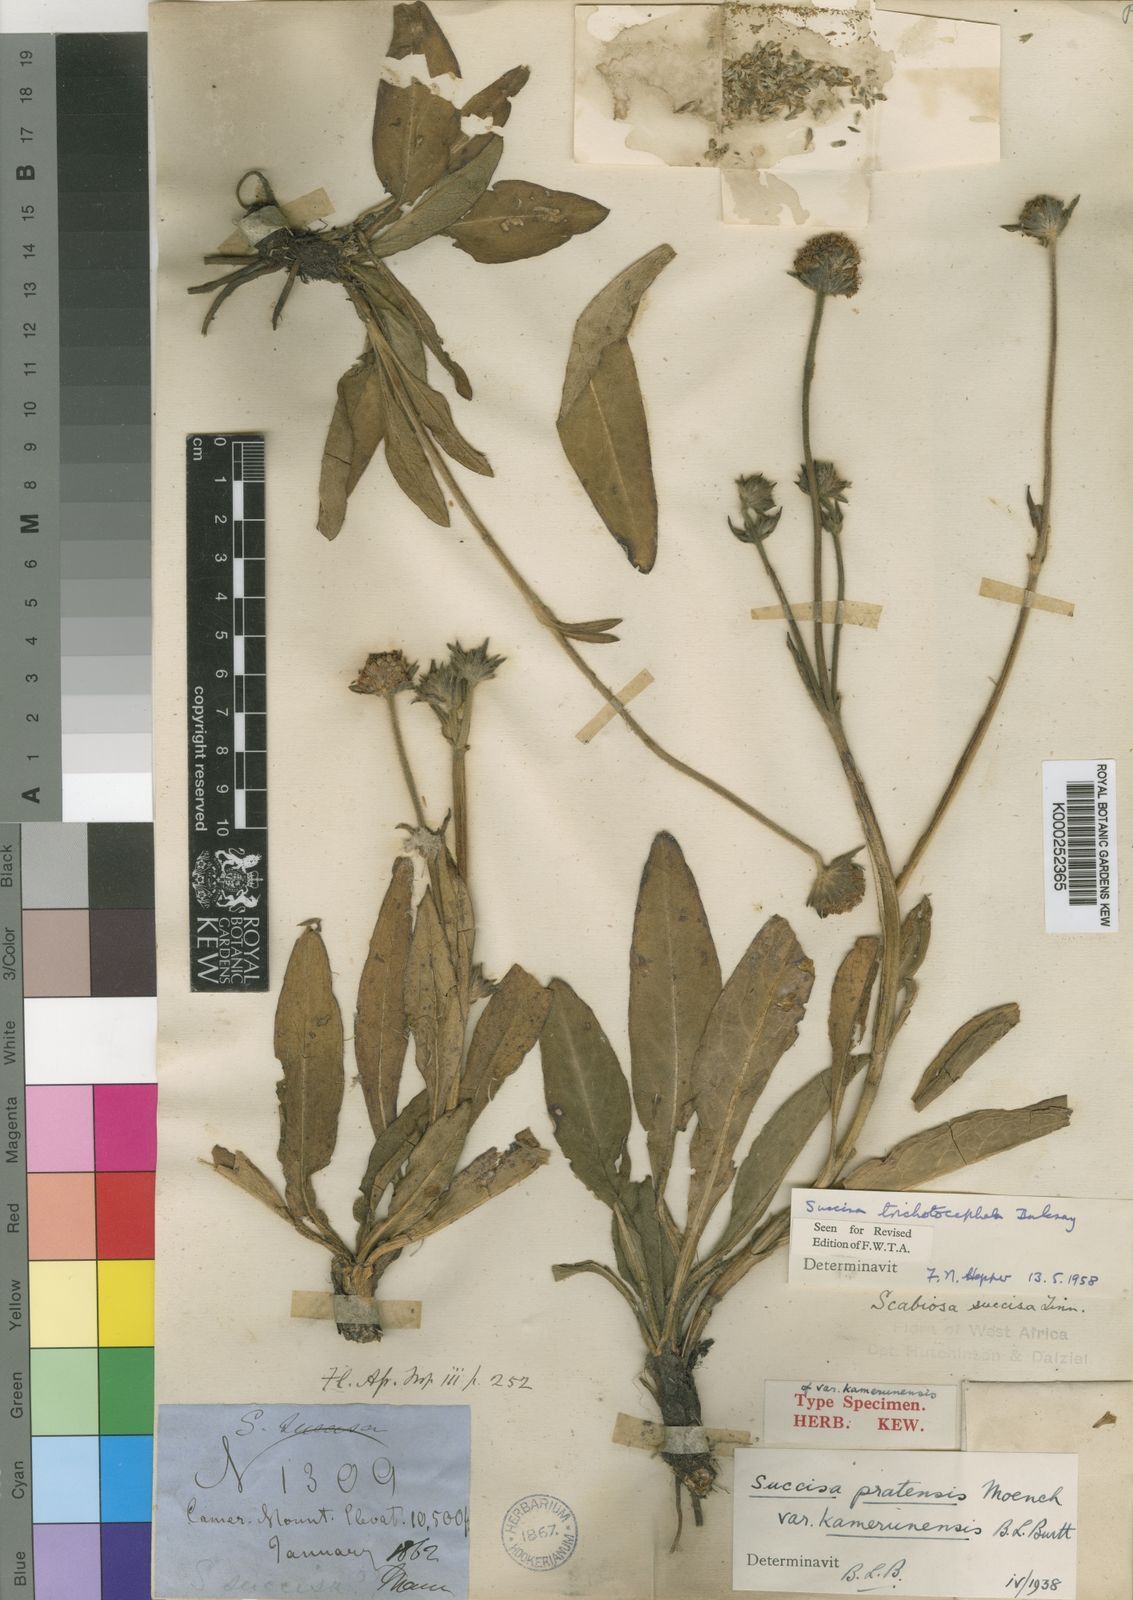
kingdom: Plantae
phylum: Tracheophyta
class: Magnoliopsida
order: Dipsacales
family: Caprifoliaceae
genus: Succisa
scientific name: Succisa pratensis
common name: Devil's-bit
